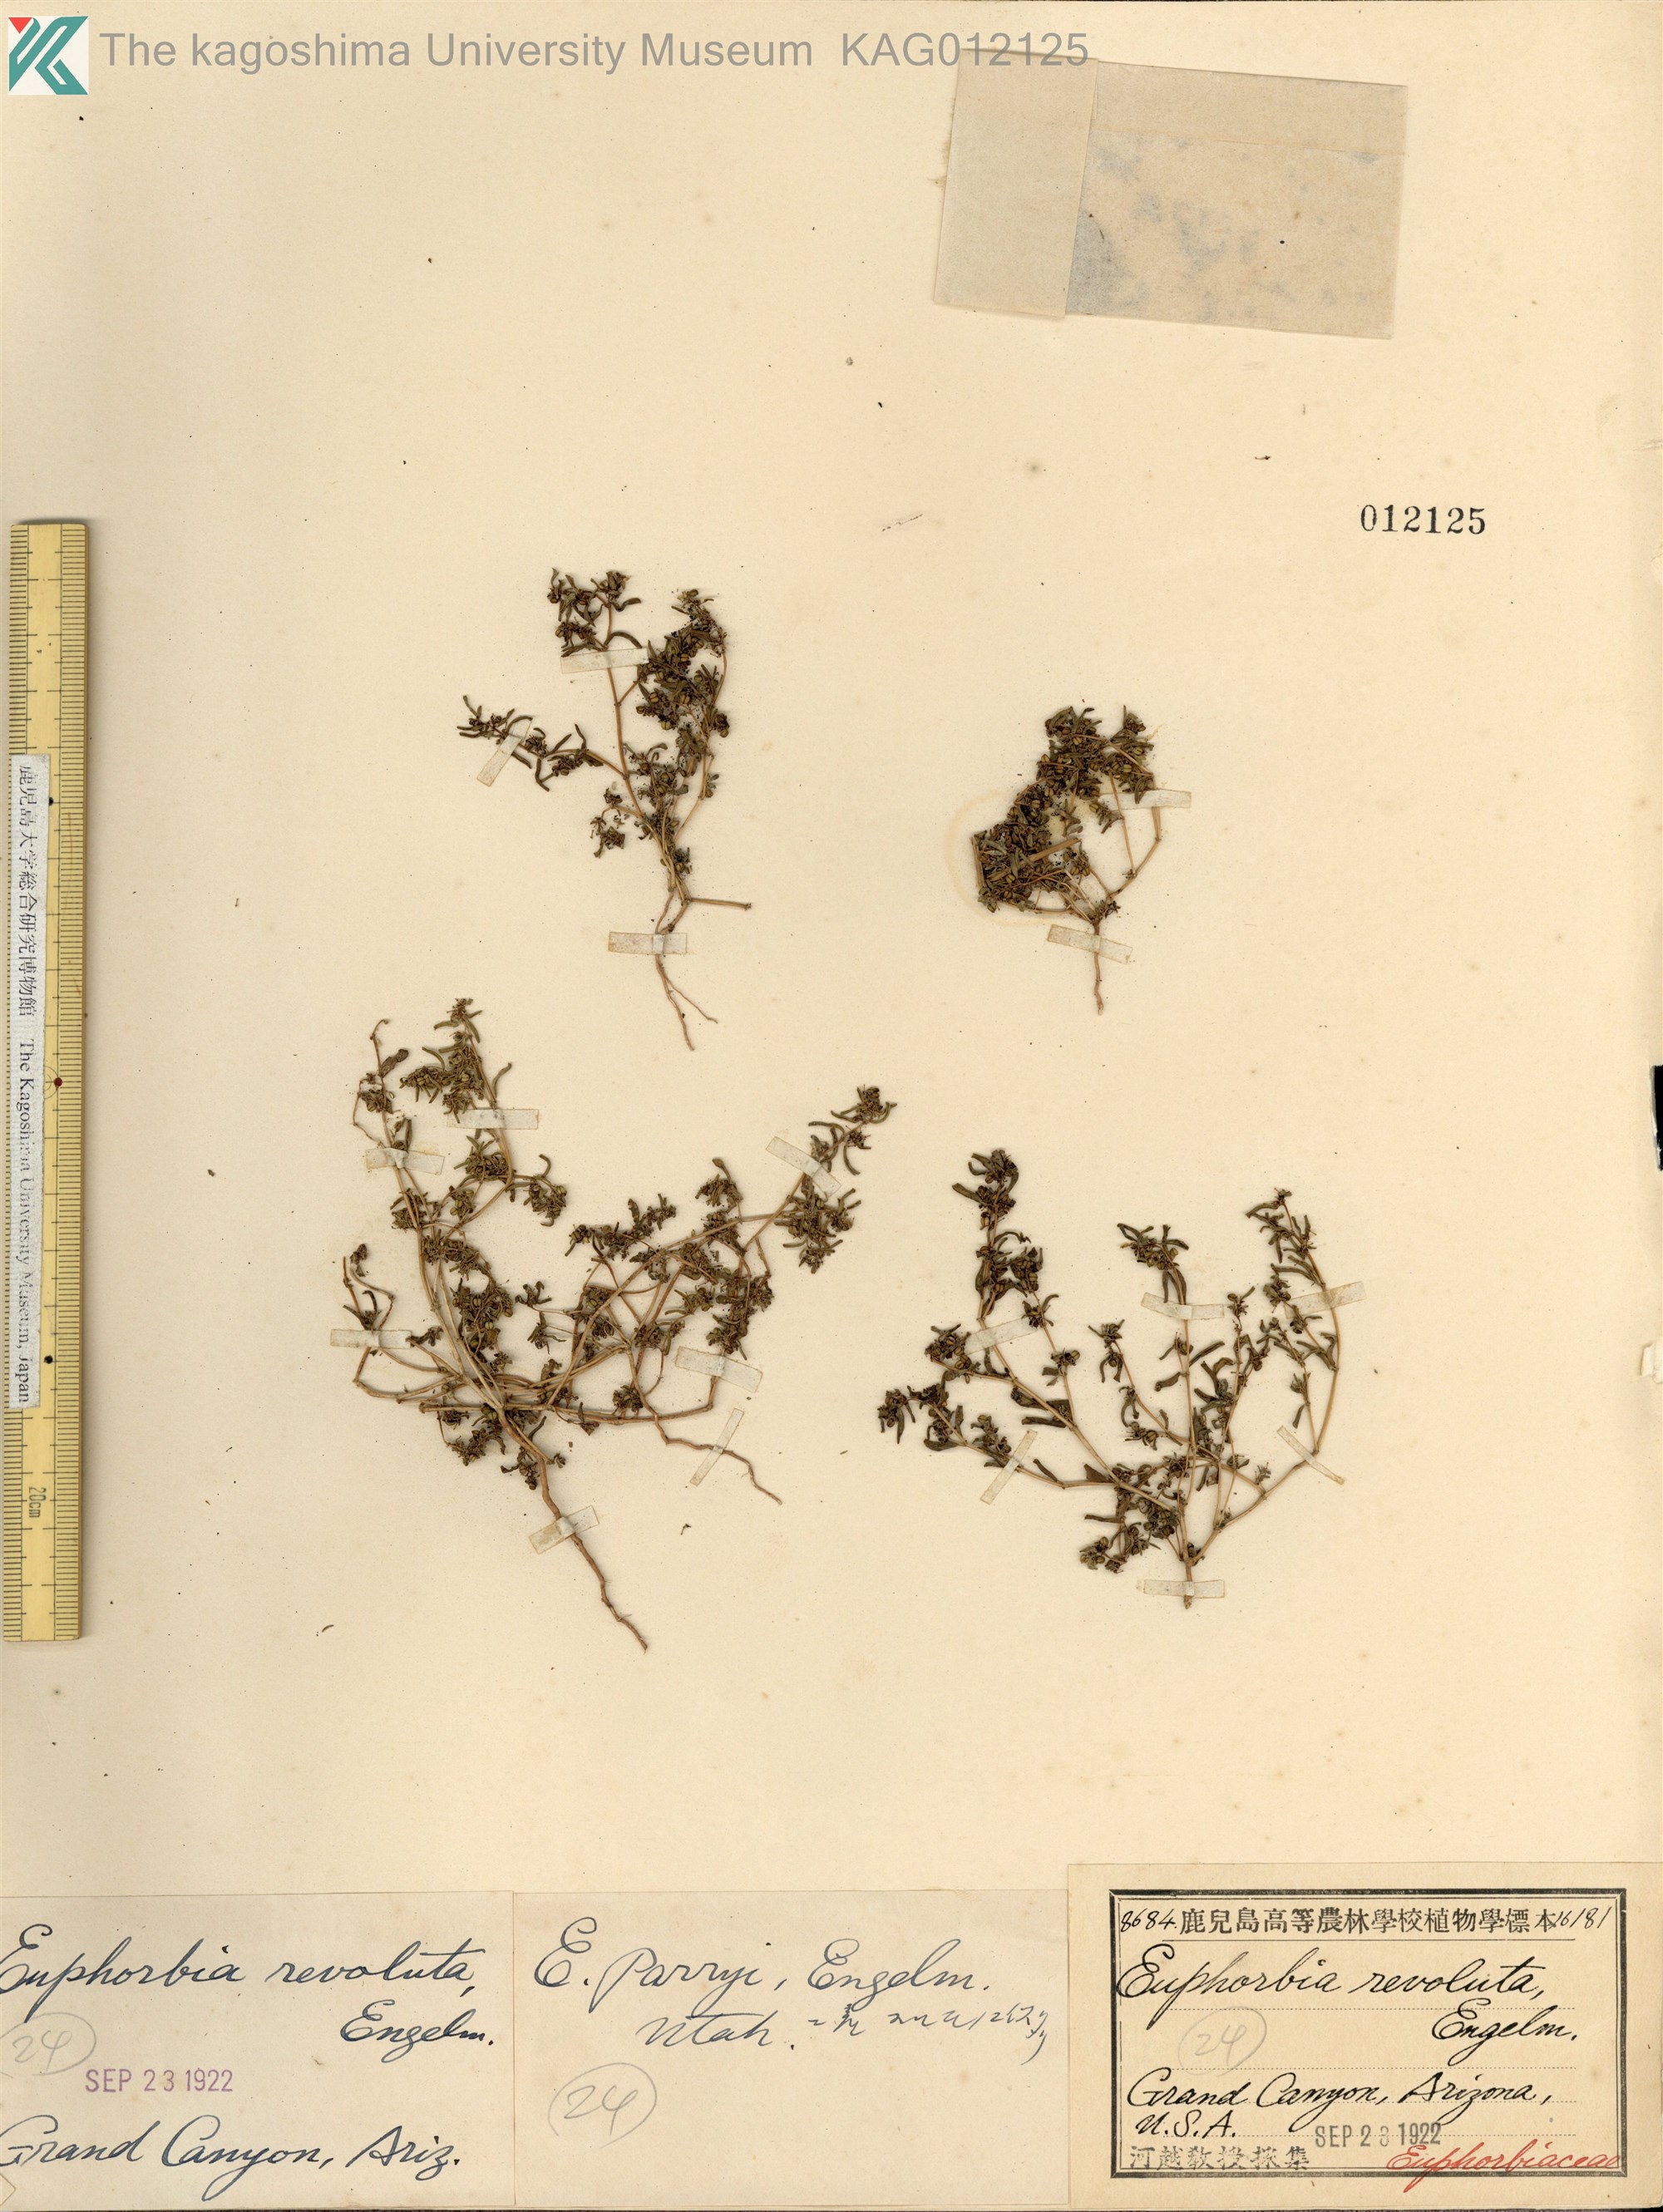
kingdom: Plantae
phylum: Tracheophyta
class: Magnoliopsida
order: Malpighiales
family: Euphorbiaceae
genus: Euphorbia
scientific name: Euphorbia revoluta
